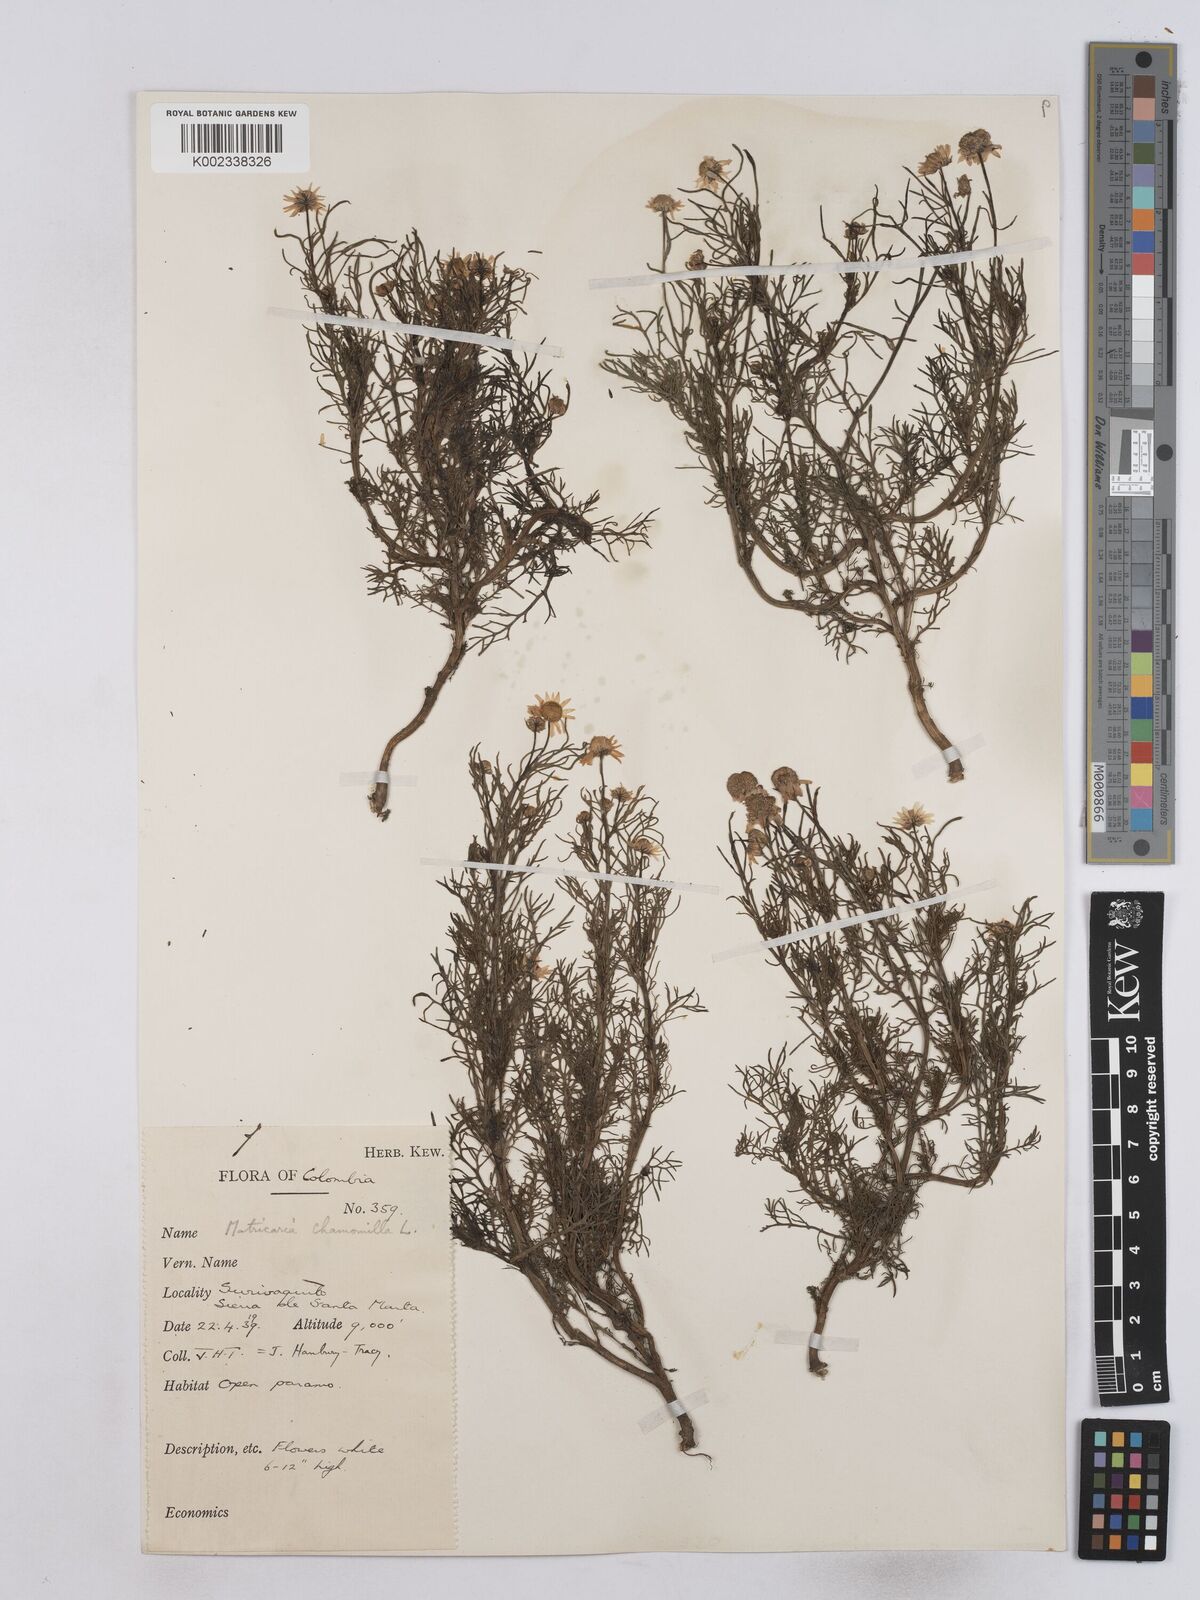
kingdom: Plantae
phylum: Tracheophyta
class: Magnoliopsida
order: Asterales
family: Asteraceae
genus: Matricaria
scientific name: Matricaria chamomilla
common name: Scented mayweed
